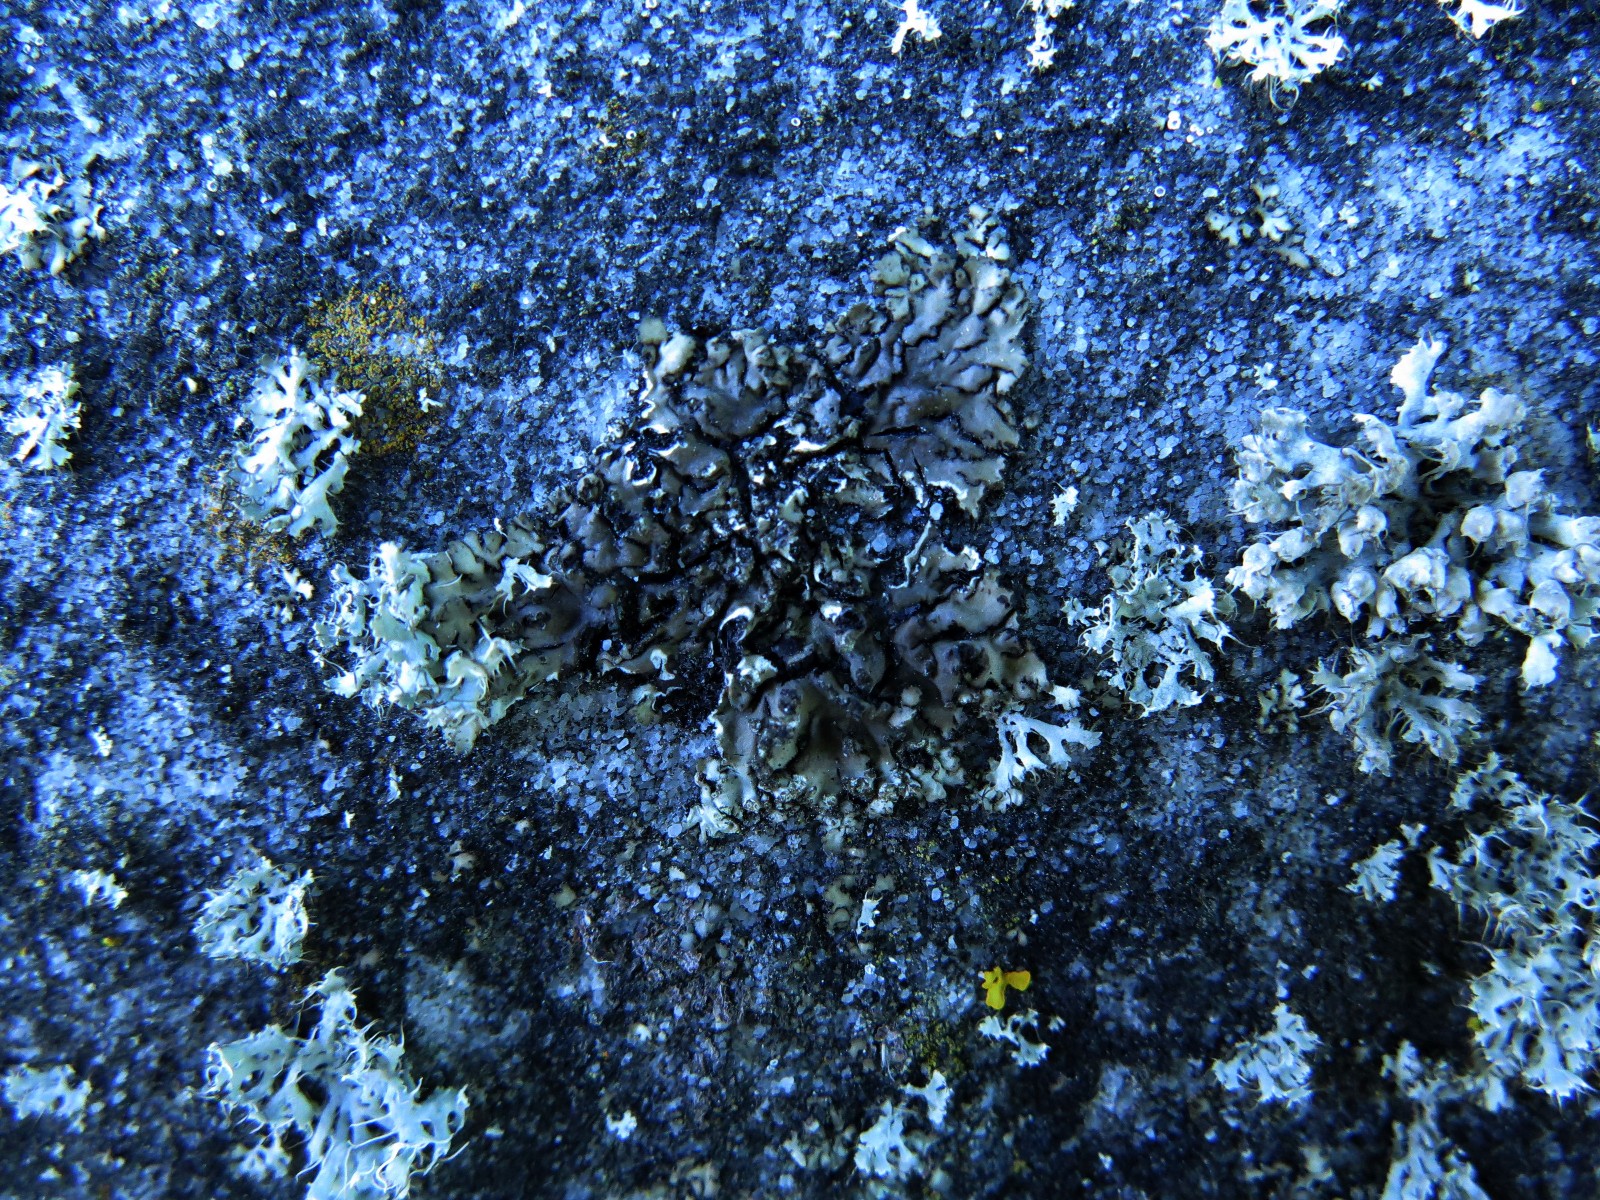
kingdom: Fungi
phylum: Ascomycota
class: Lecanoromycetes
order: Caliciales
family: Physciaceae
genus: Phaeophyscia
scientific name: Phaeophyscia orbicularis
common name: grågrøn rosetlav
